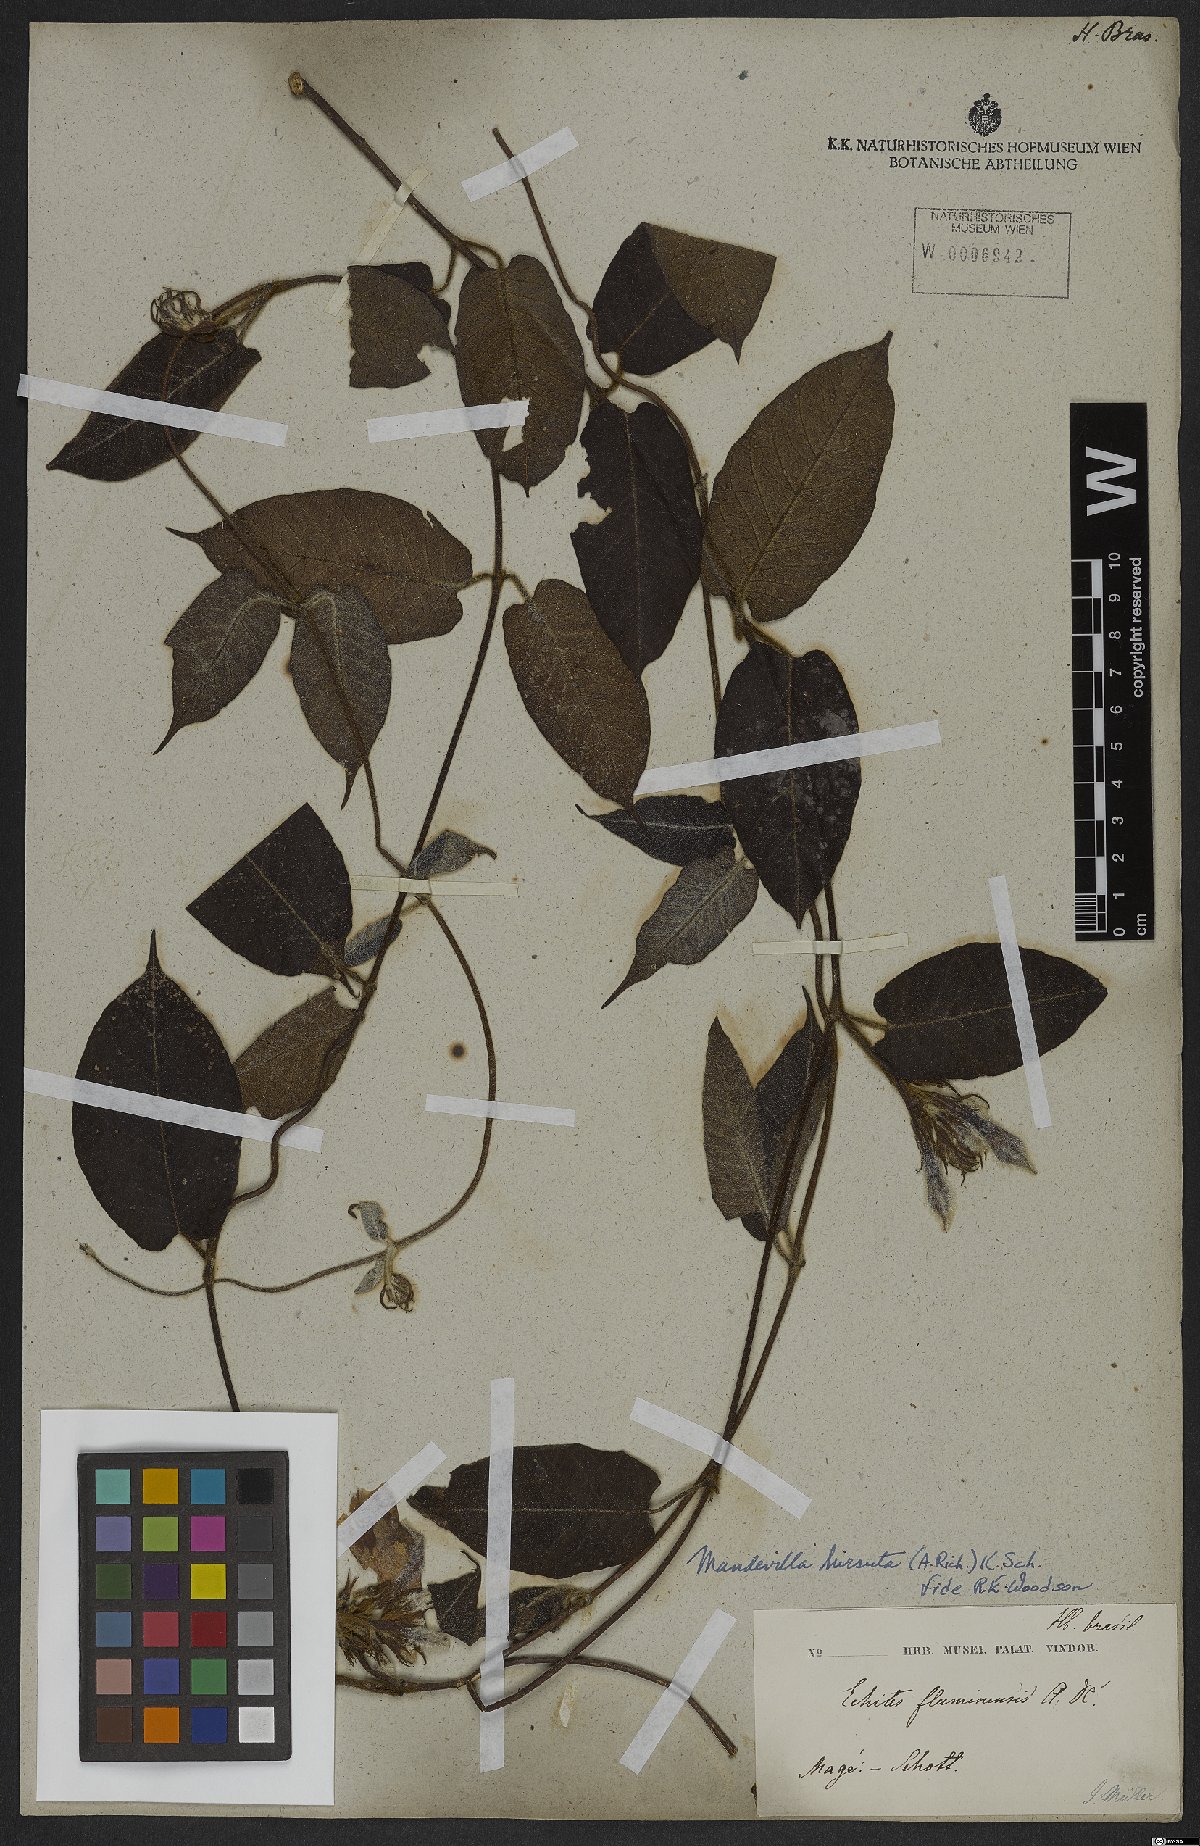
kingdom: Plantae
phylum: Tracheophyta
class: Magnoliopsida
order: Gentianales
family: Apocynaceae
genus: Mandevilla
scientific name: Mandevilla hirsuta
